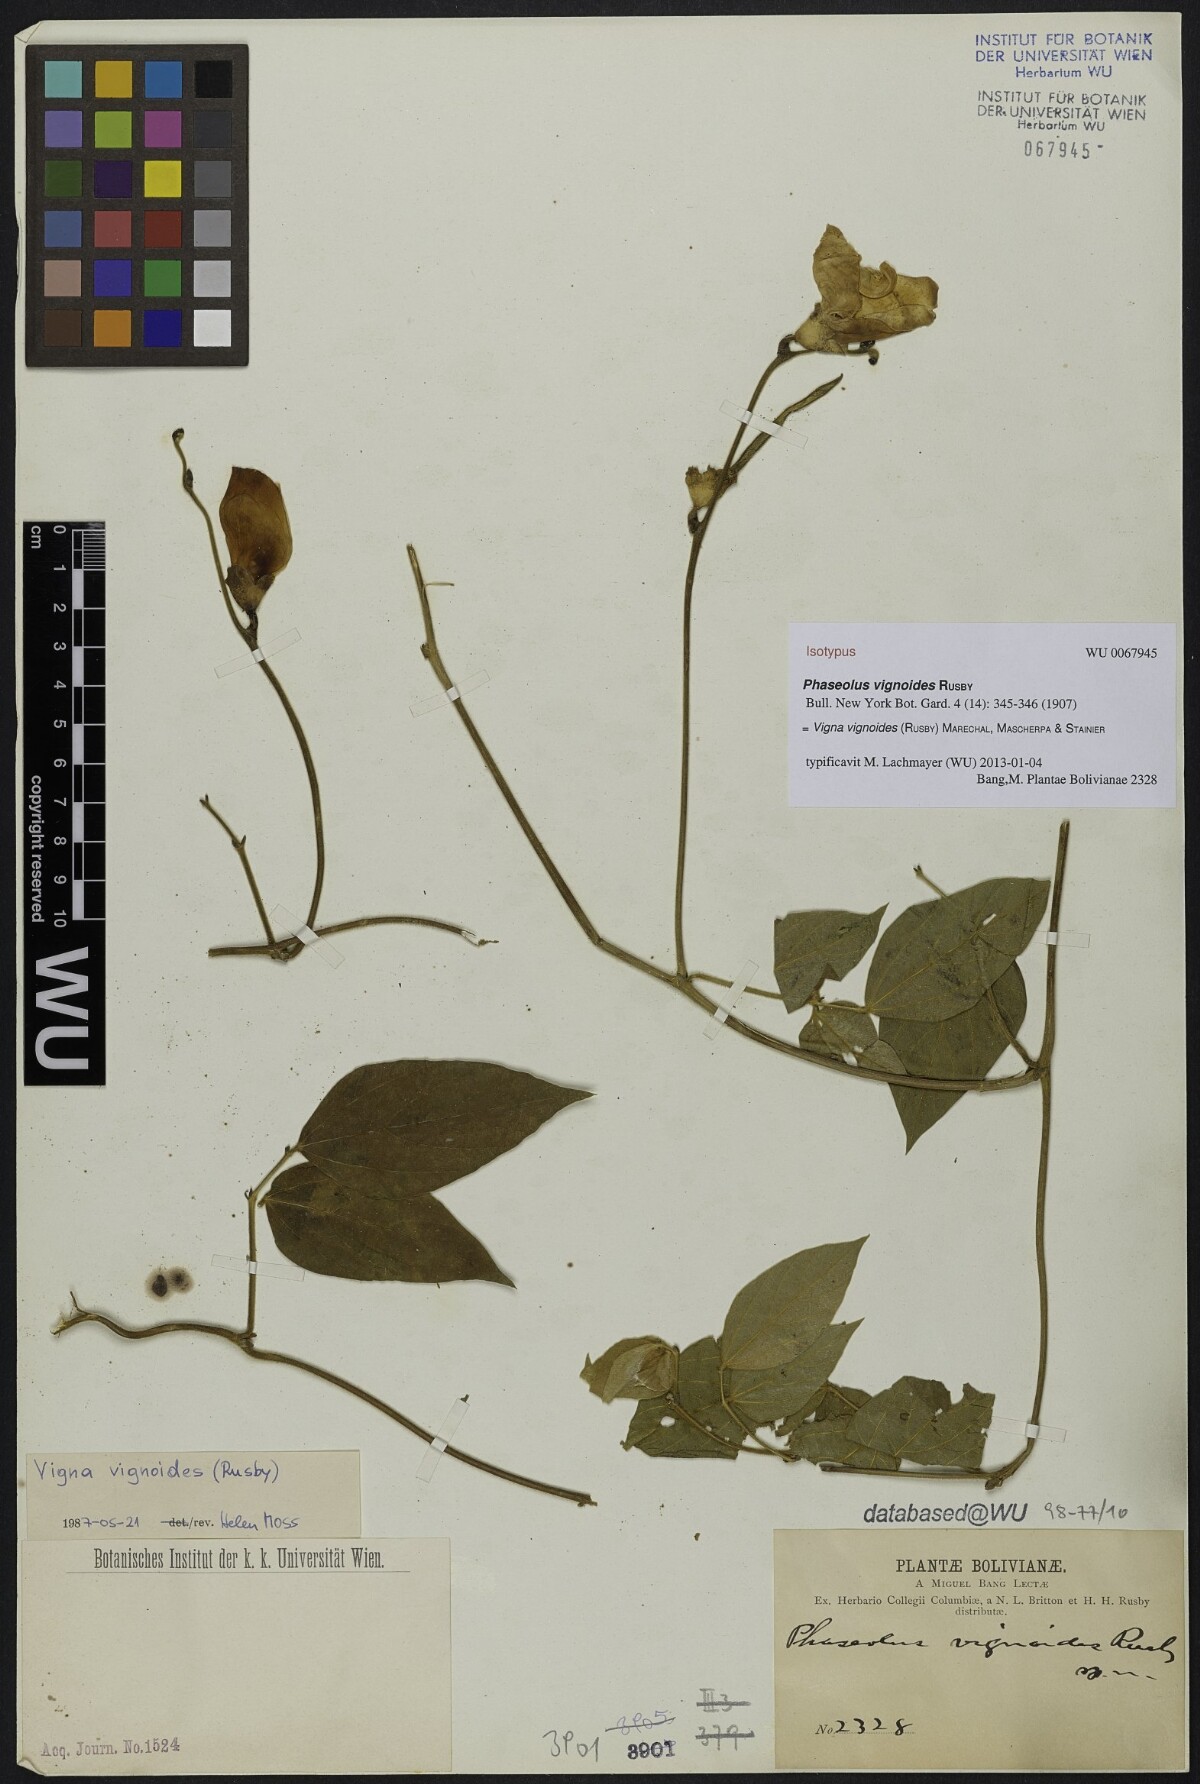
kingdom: Plantae
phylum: Tracheophyta
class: Magnoliopsida
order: Fabales
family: Fabaceae
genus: Condylostylis
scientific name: Condylostylis vignoides
